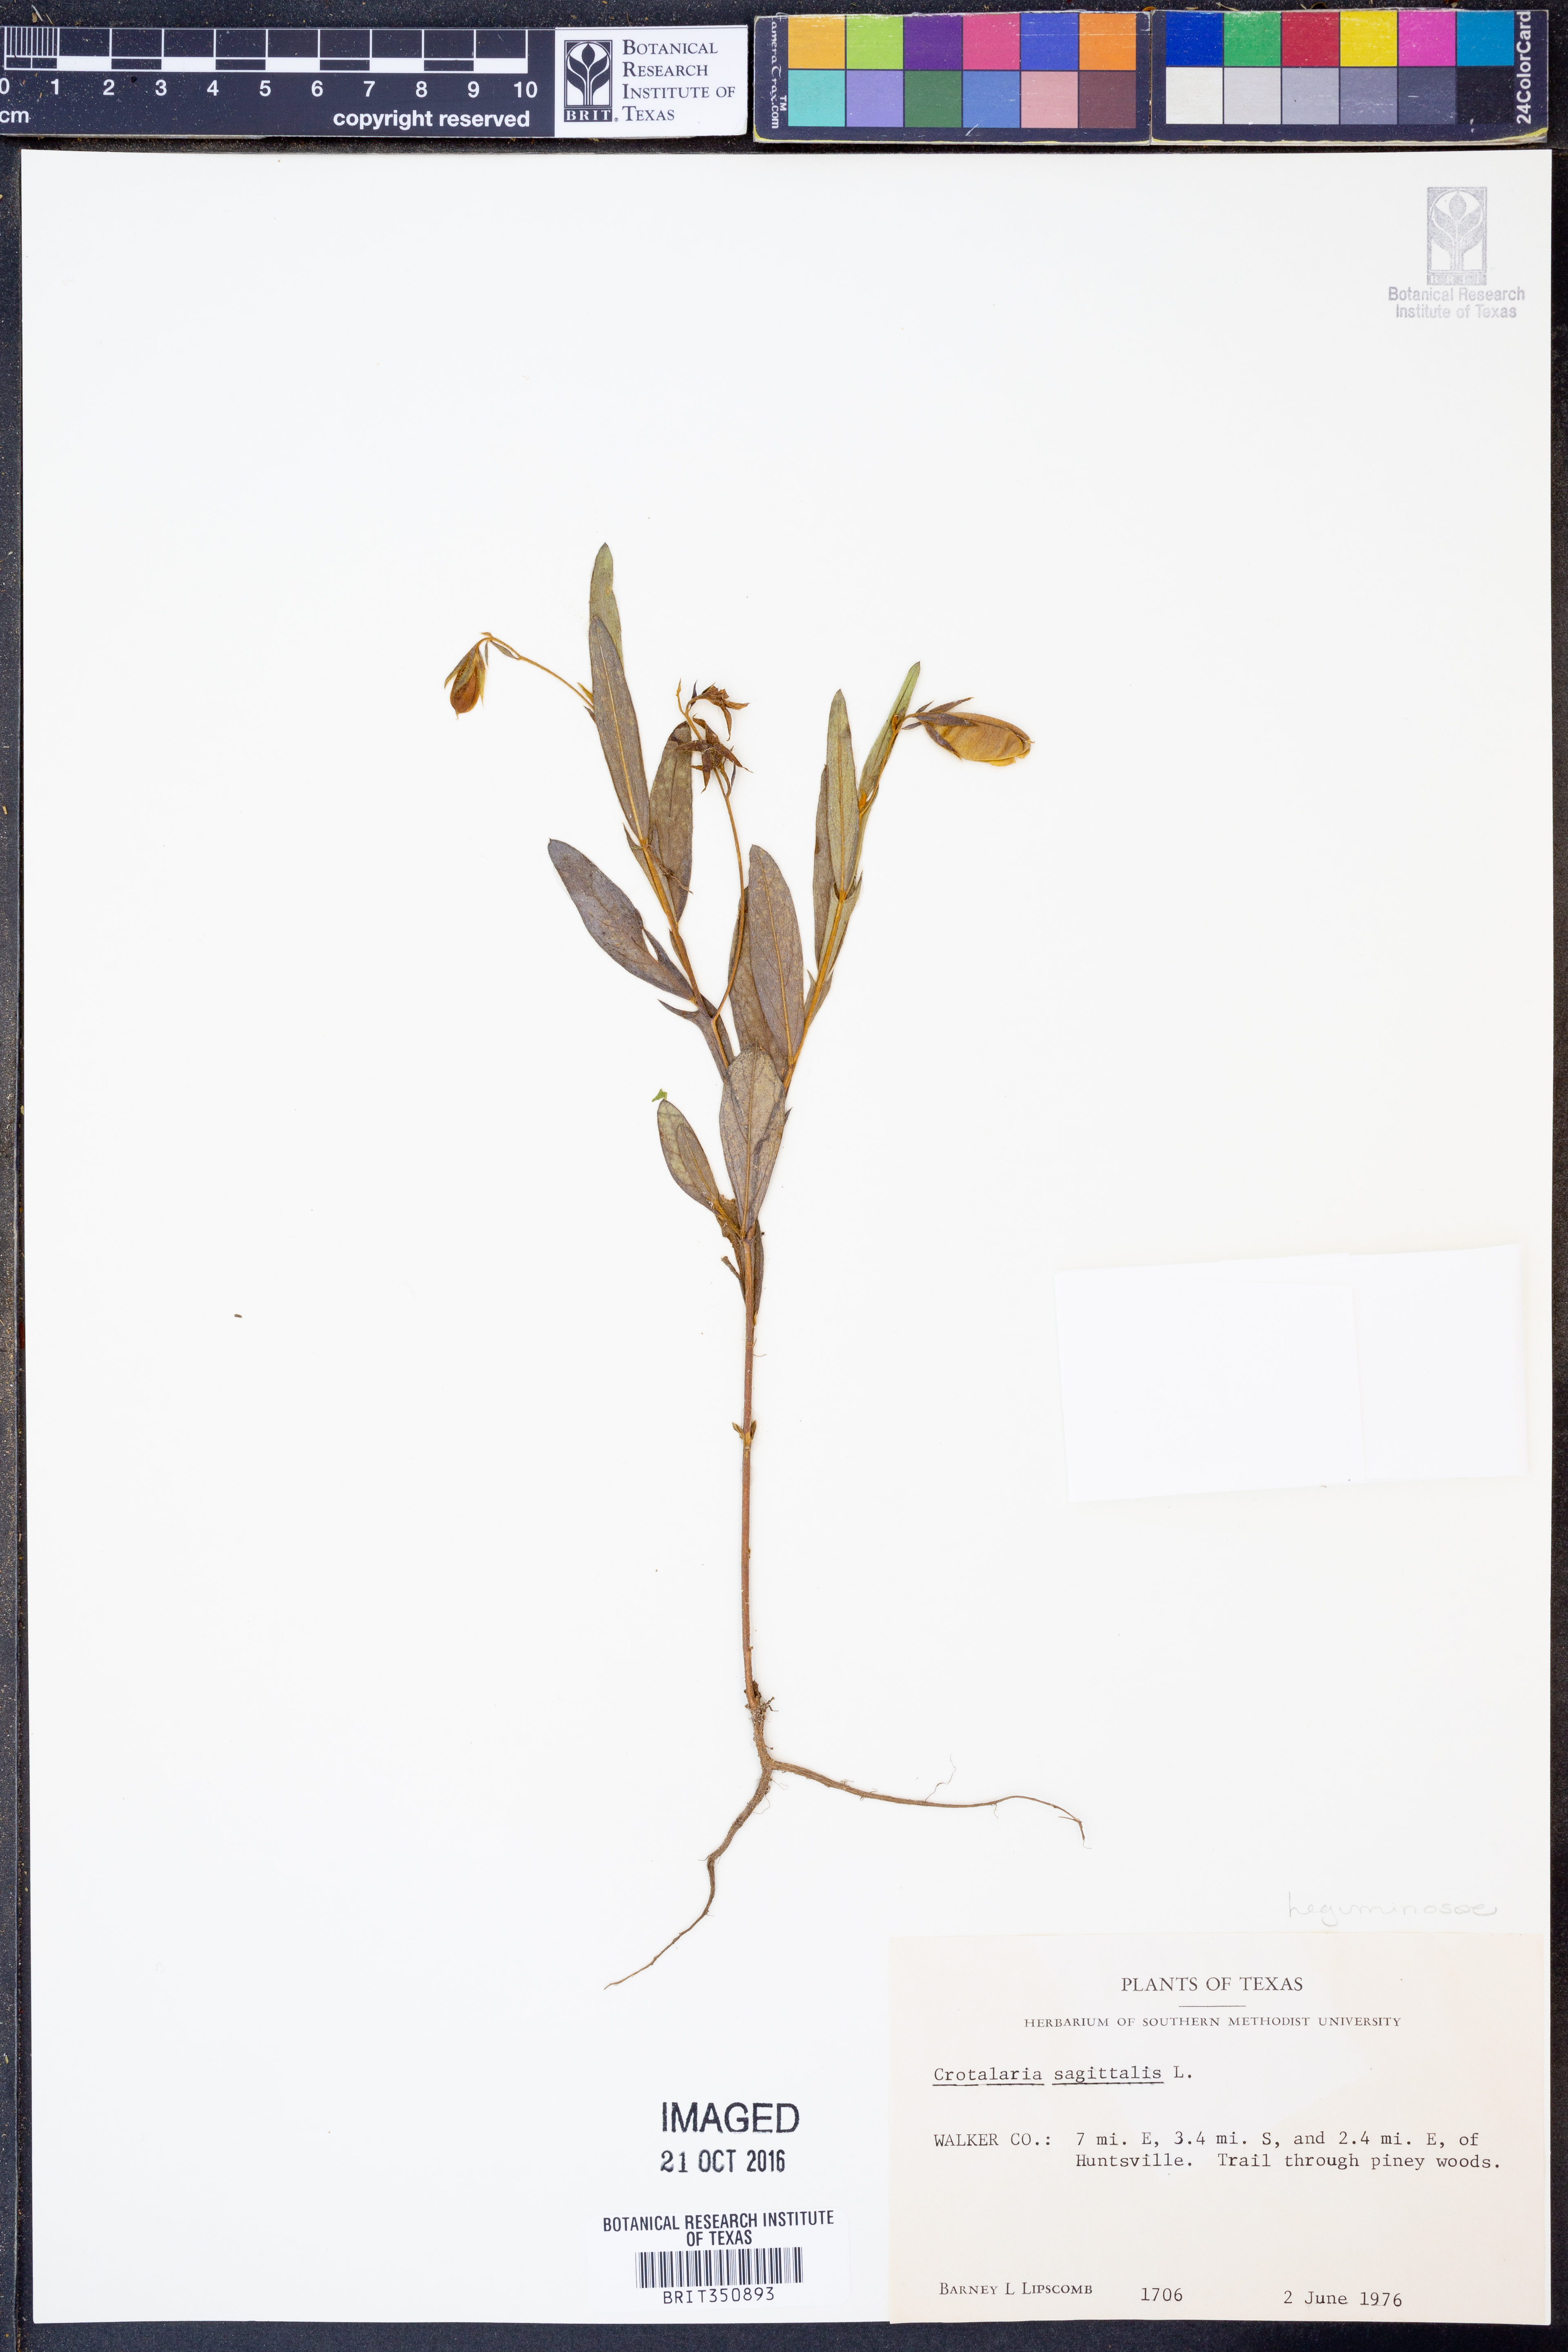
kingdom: Plantae
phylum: Tracheophyta
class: Magnoliopsida
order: Fabales
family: Fabaceae
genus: Crotalaria
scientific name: Crotalaria sagittalis
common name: Arrowhead rattlebox
